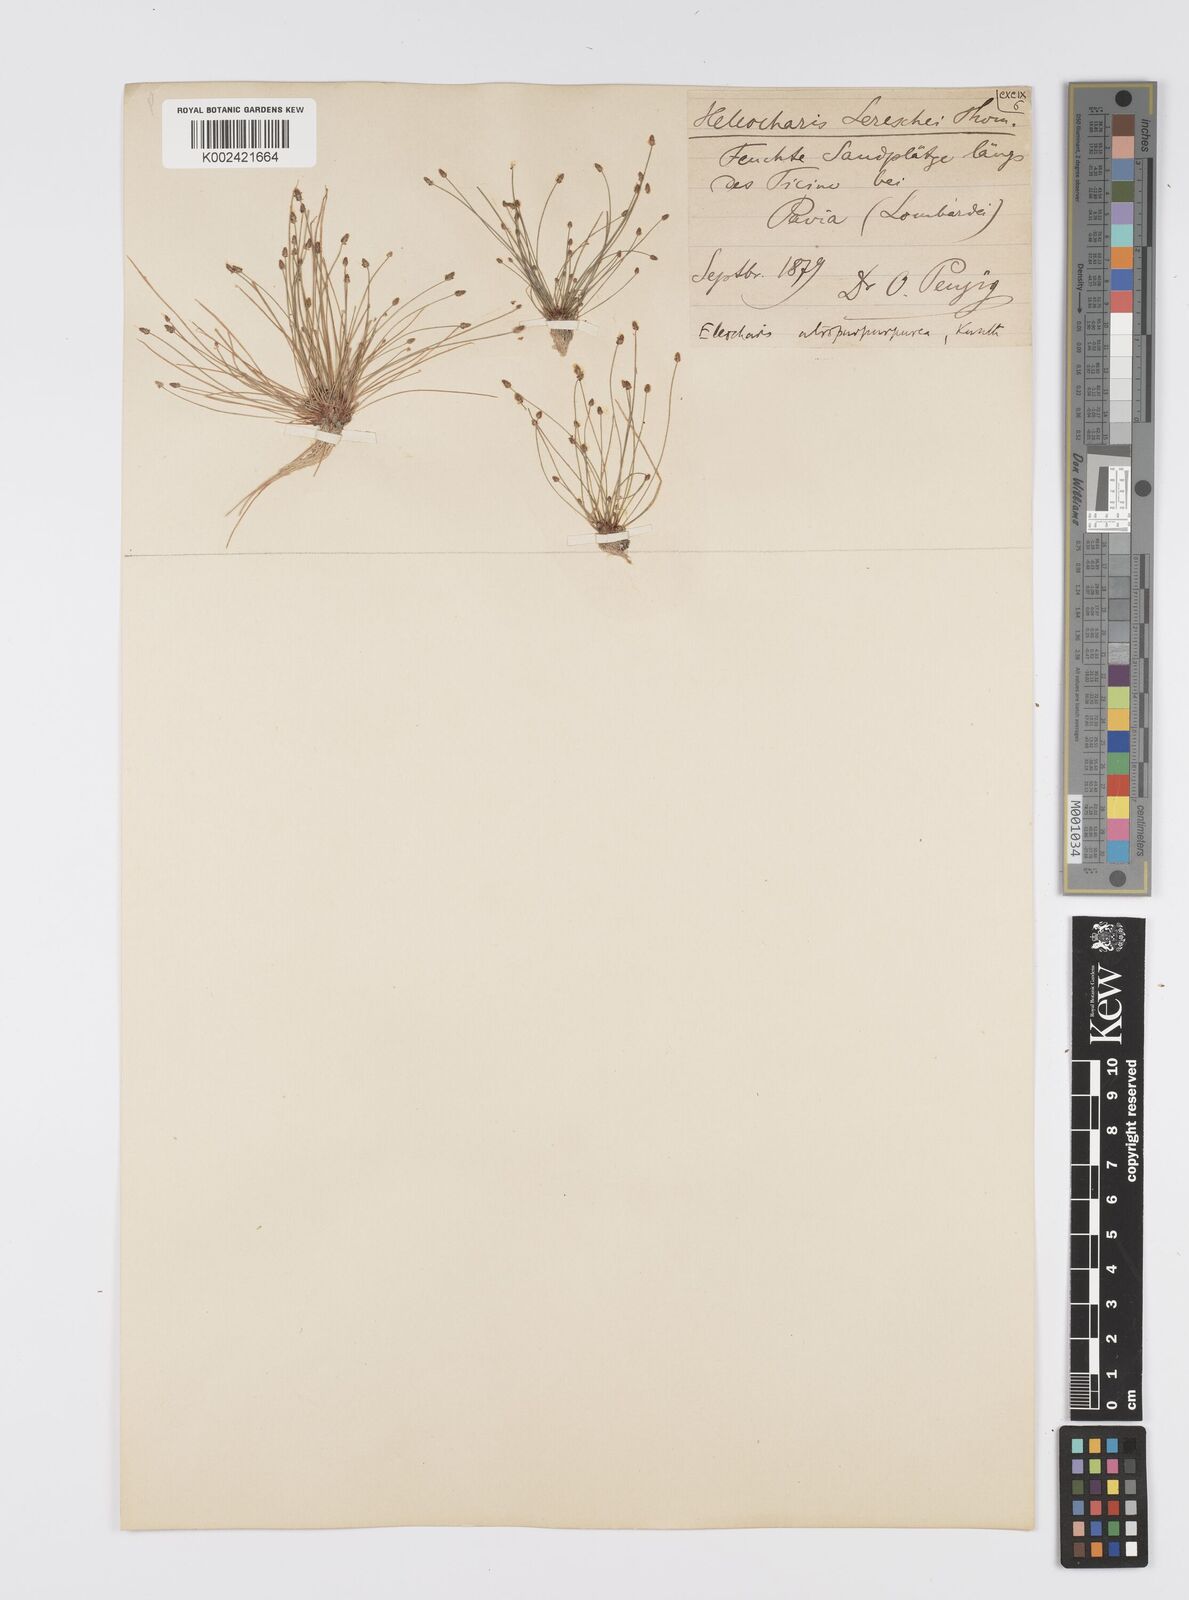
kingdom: Plantae
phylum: Tracheophyta
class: Liliopsida
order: Poales
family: Cyperaceae
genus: Eleocharis
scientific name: Eleocharis carniolica
